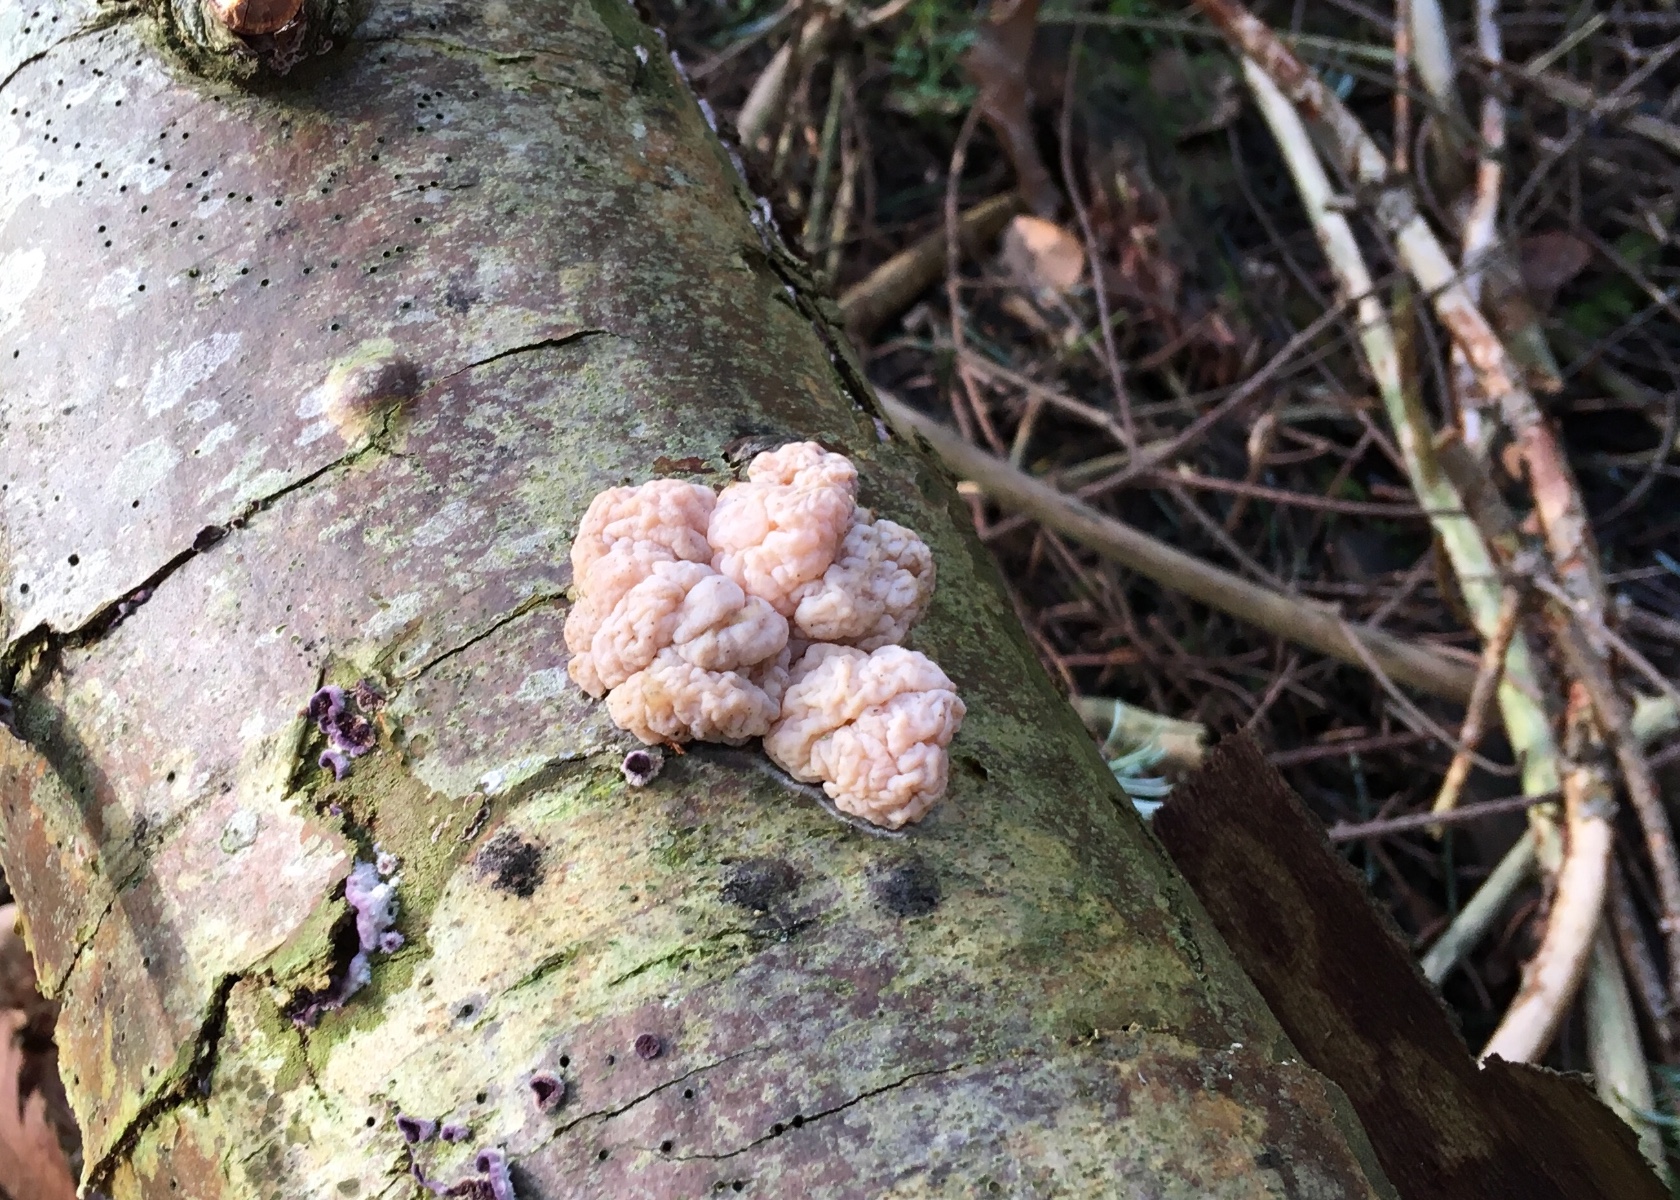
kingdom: Fungi
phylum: Basidiomycota
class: Tremellomycetes
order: Tremellales
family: Naemateliaceae
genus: Naematelia
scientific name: Naematelia encephala
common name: fyrre-bævresvamp
